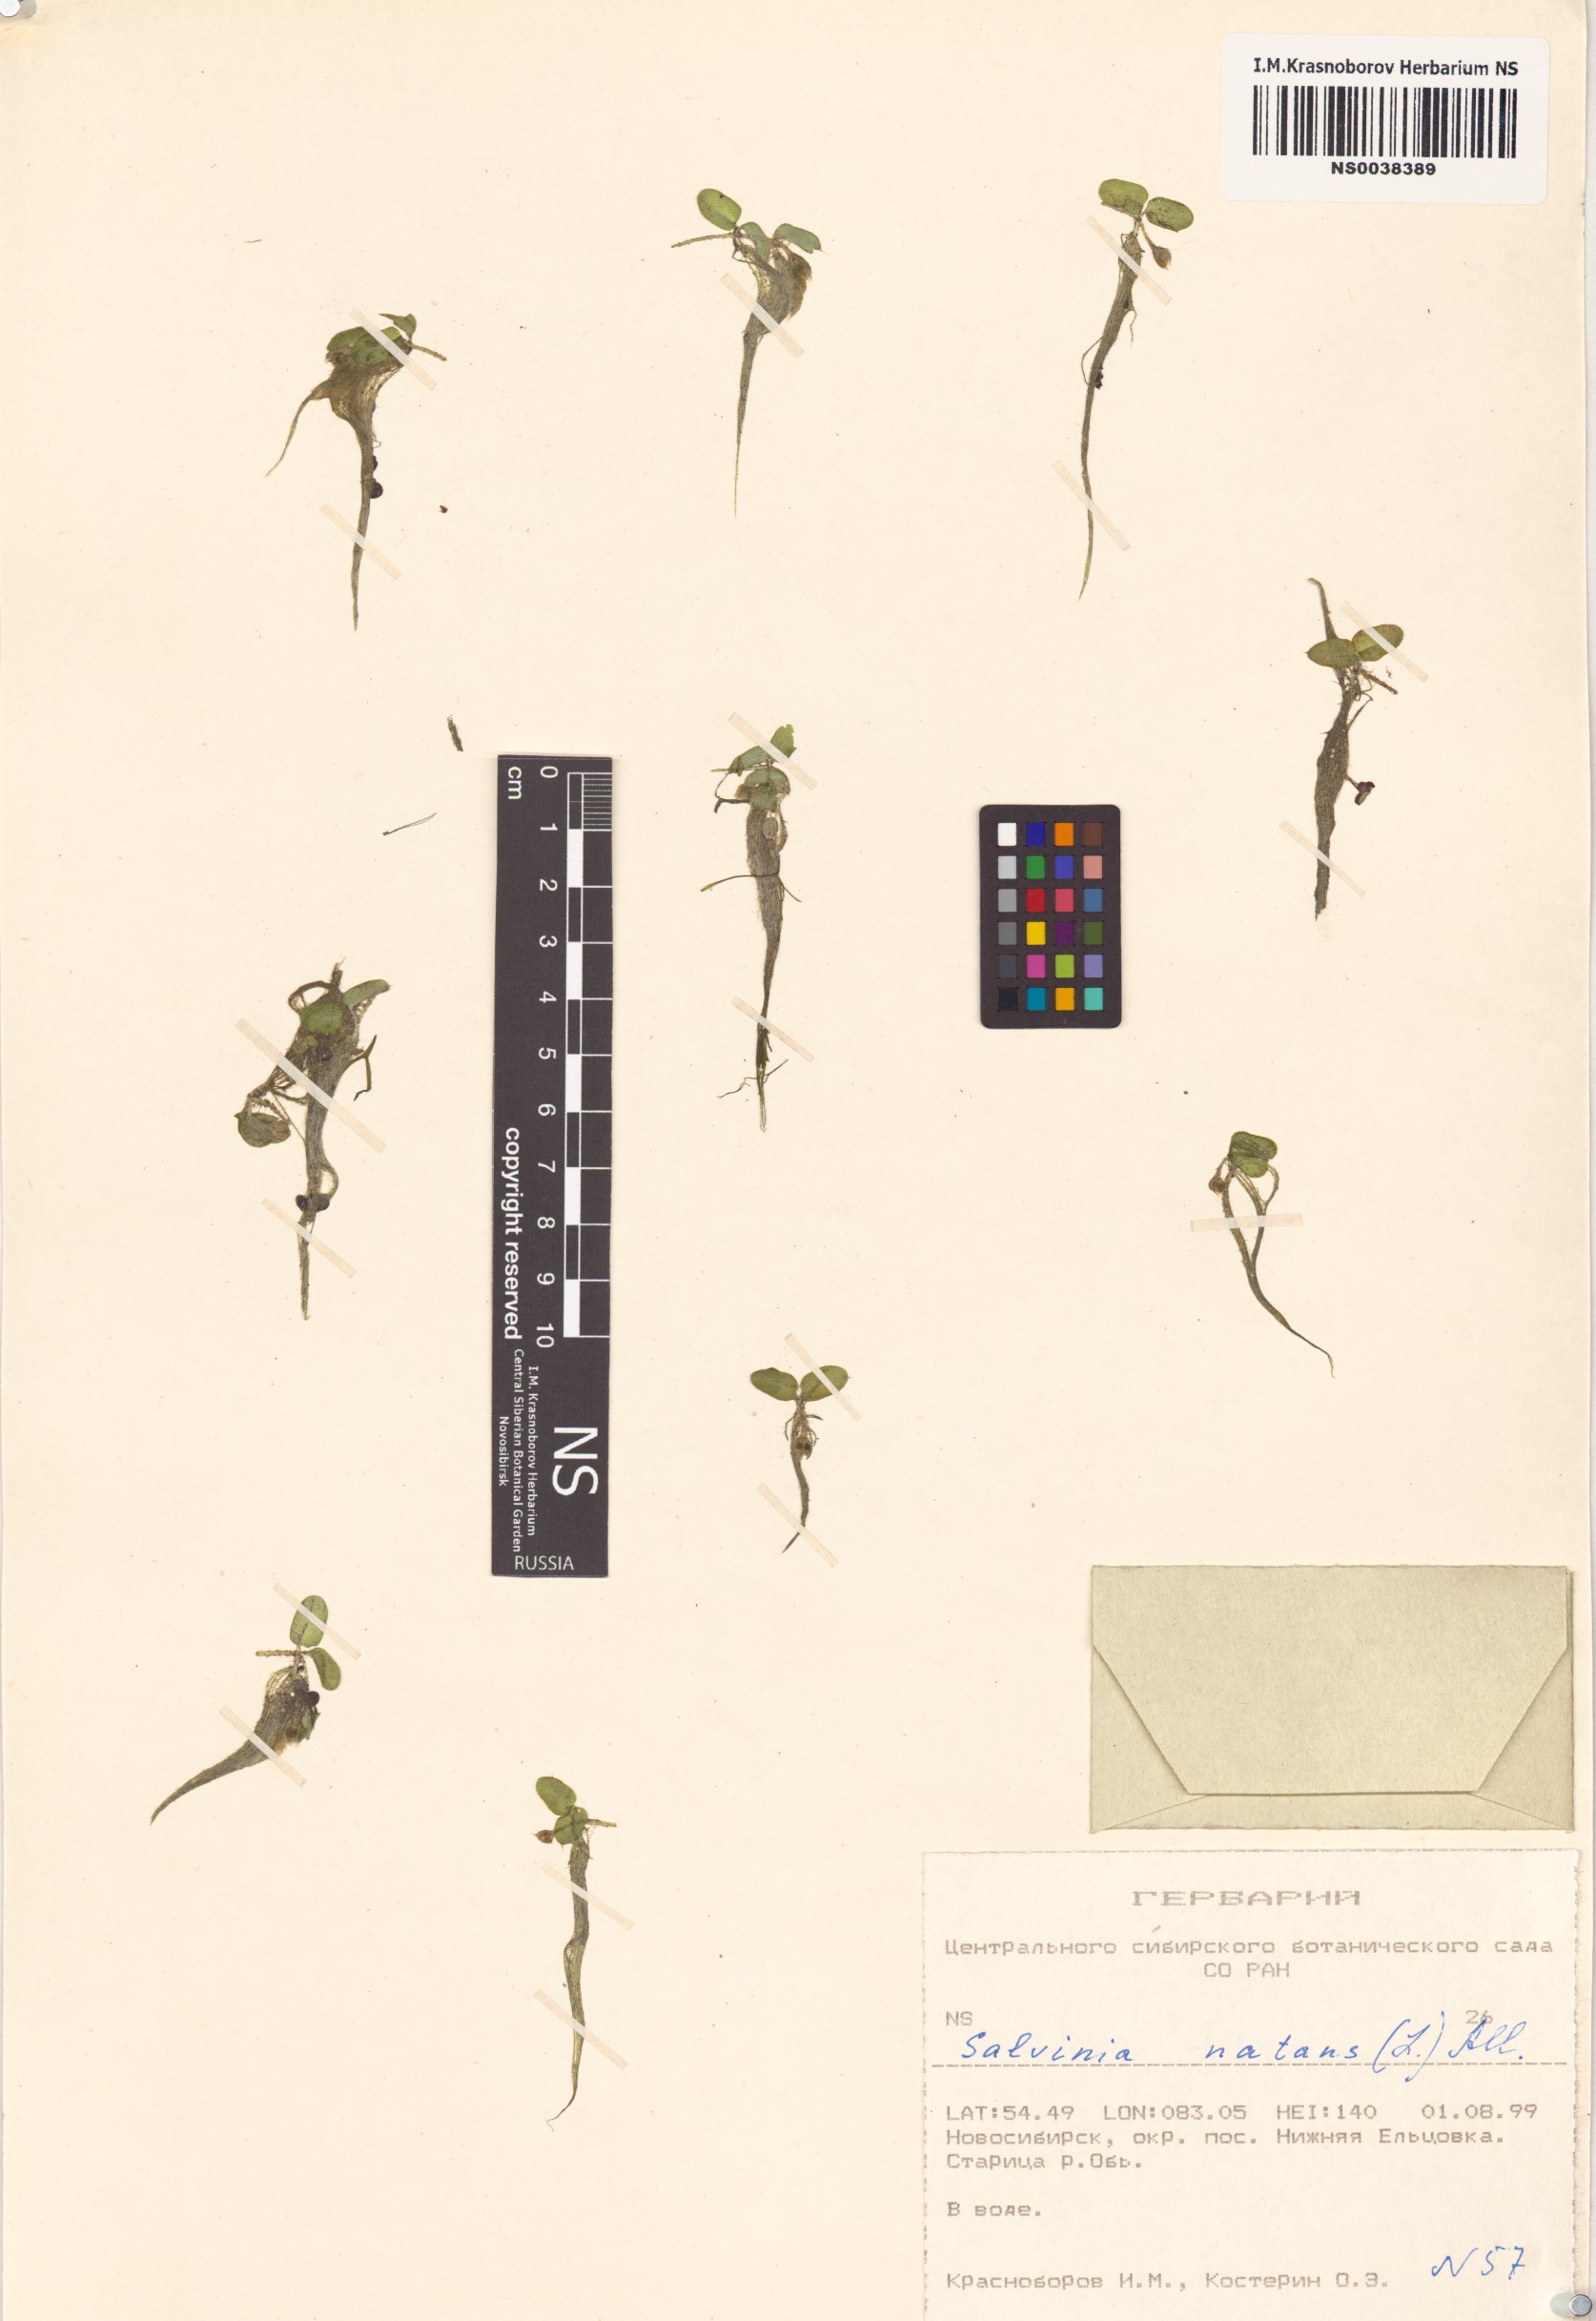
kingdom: Plantae
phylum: Tracheophyta
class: Polypodiopsida
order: Salviniales
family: Salviniaceae
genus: Salvinia
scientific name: Salvinia natans
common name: Floating fern
